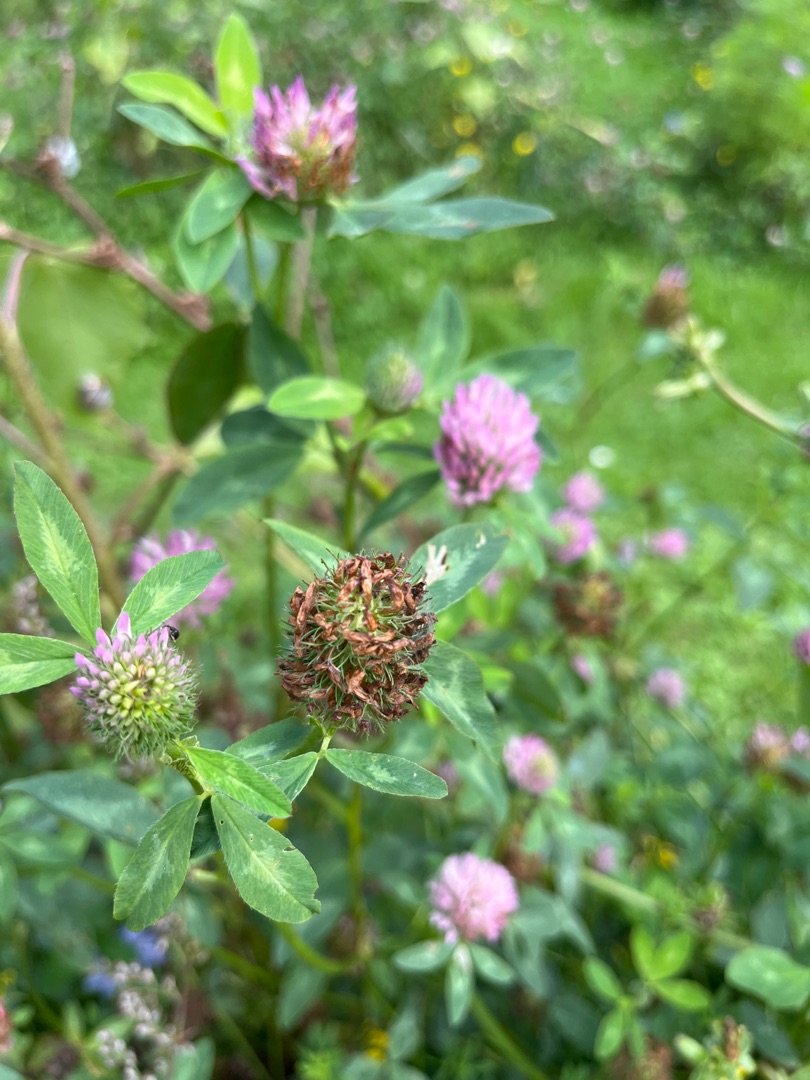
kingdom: Plantae
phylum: Tracheophyta
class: Magnoliopsida
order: Fabales
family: Fabaceae
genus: Trifolium
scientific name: Trifolium pratense
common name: Rød-kløver
